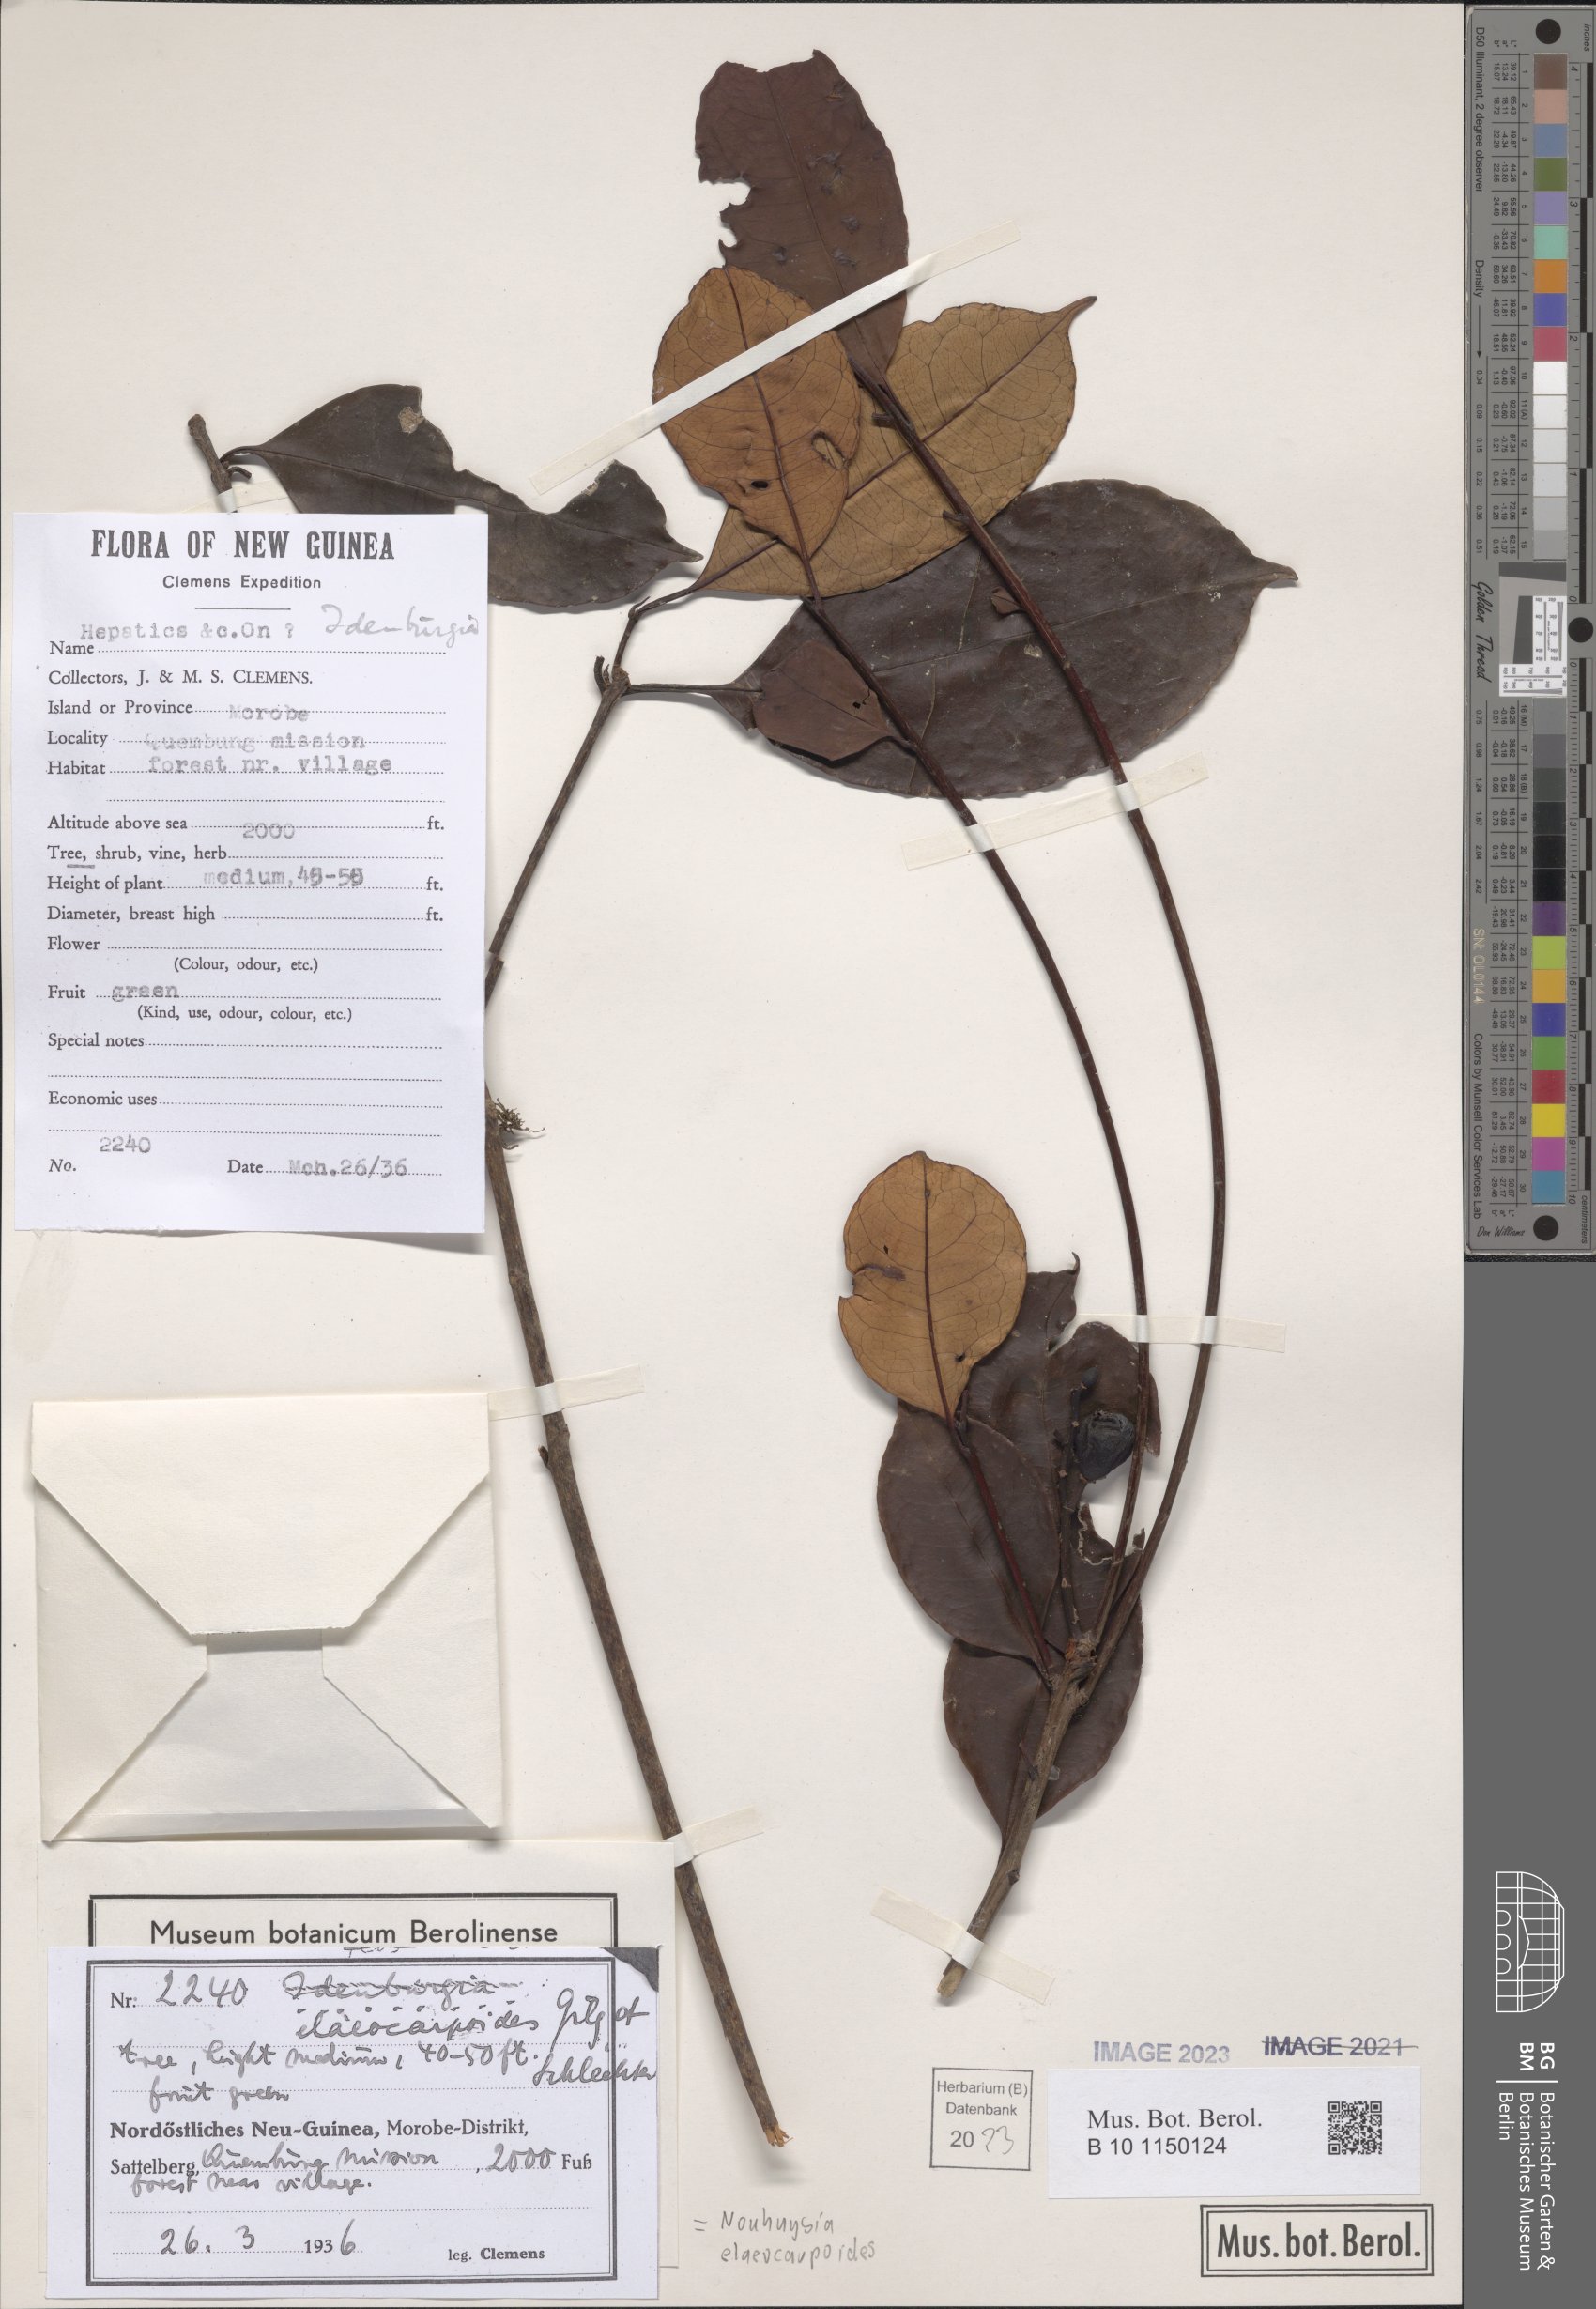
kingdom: Plantae
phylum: Tracheophyta
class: Magnoliopsida
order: Paracryphiales
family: Paracryphiaceae
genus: Sphenostemon
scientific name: Sphenostemon papuanus
